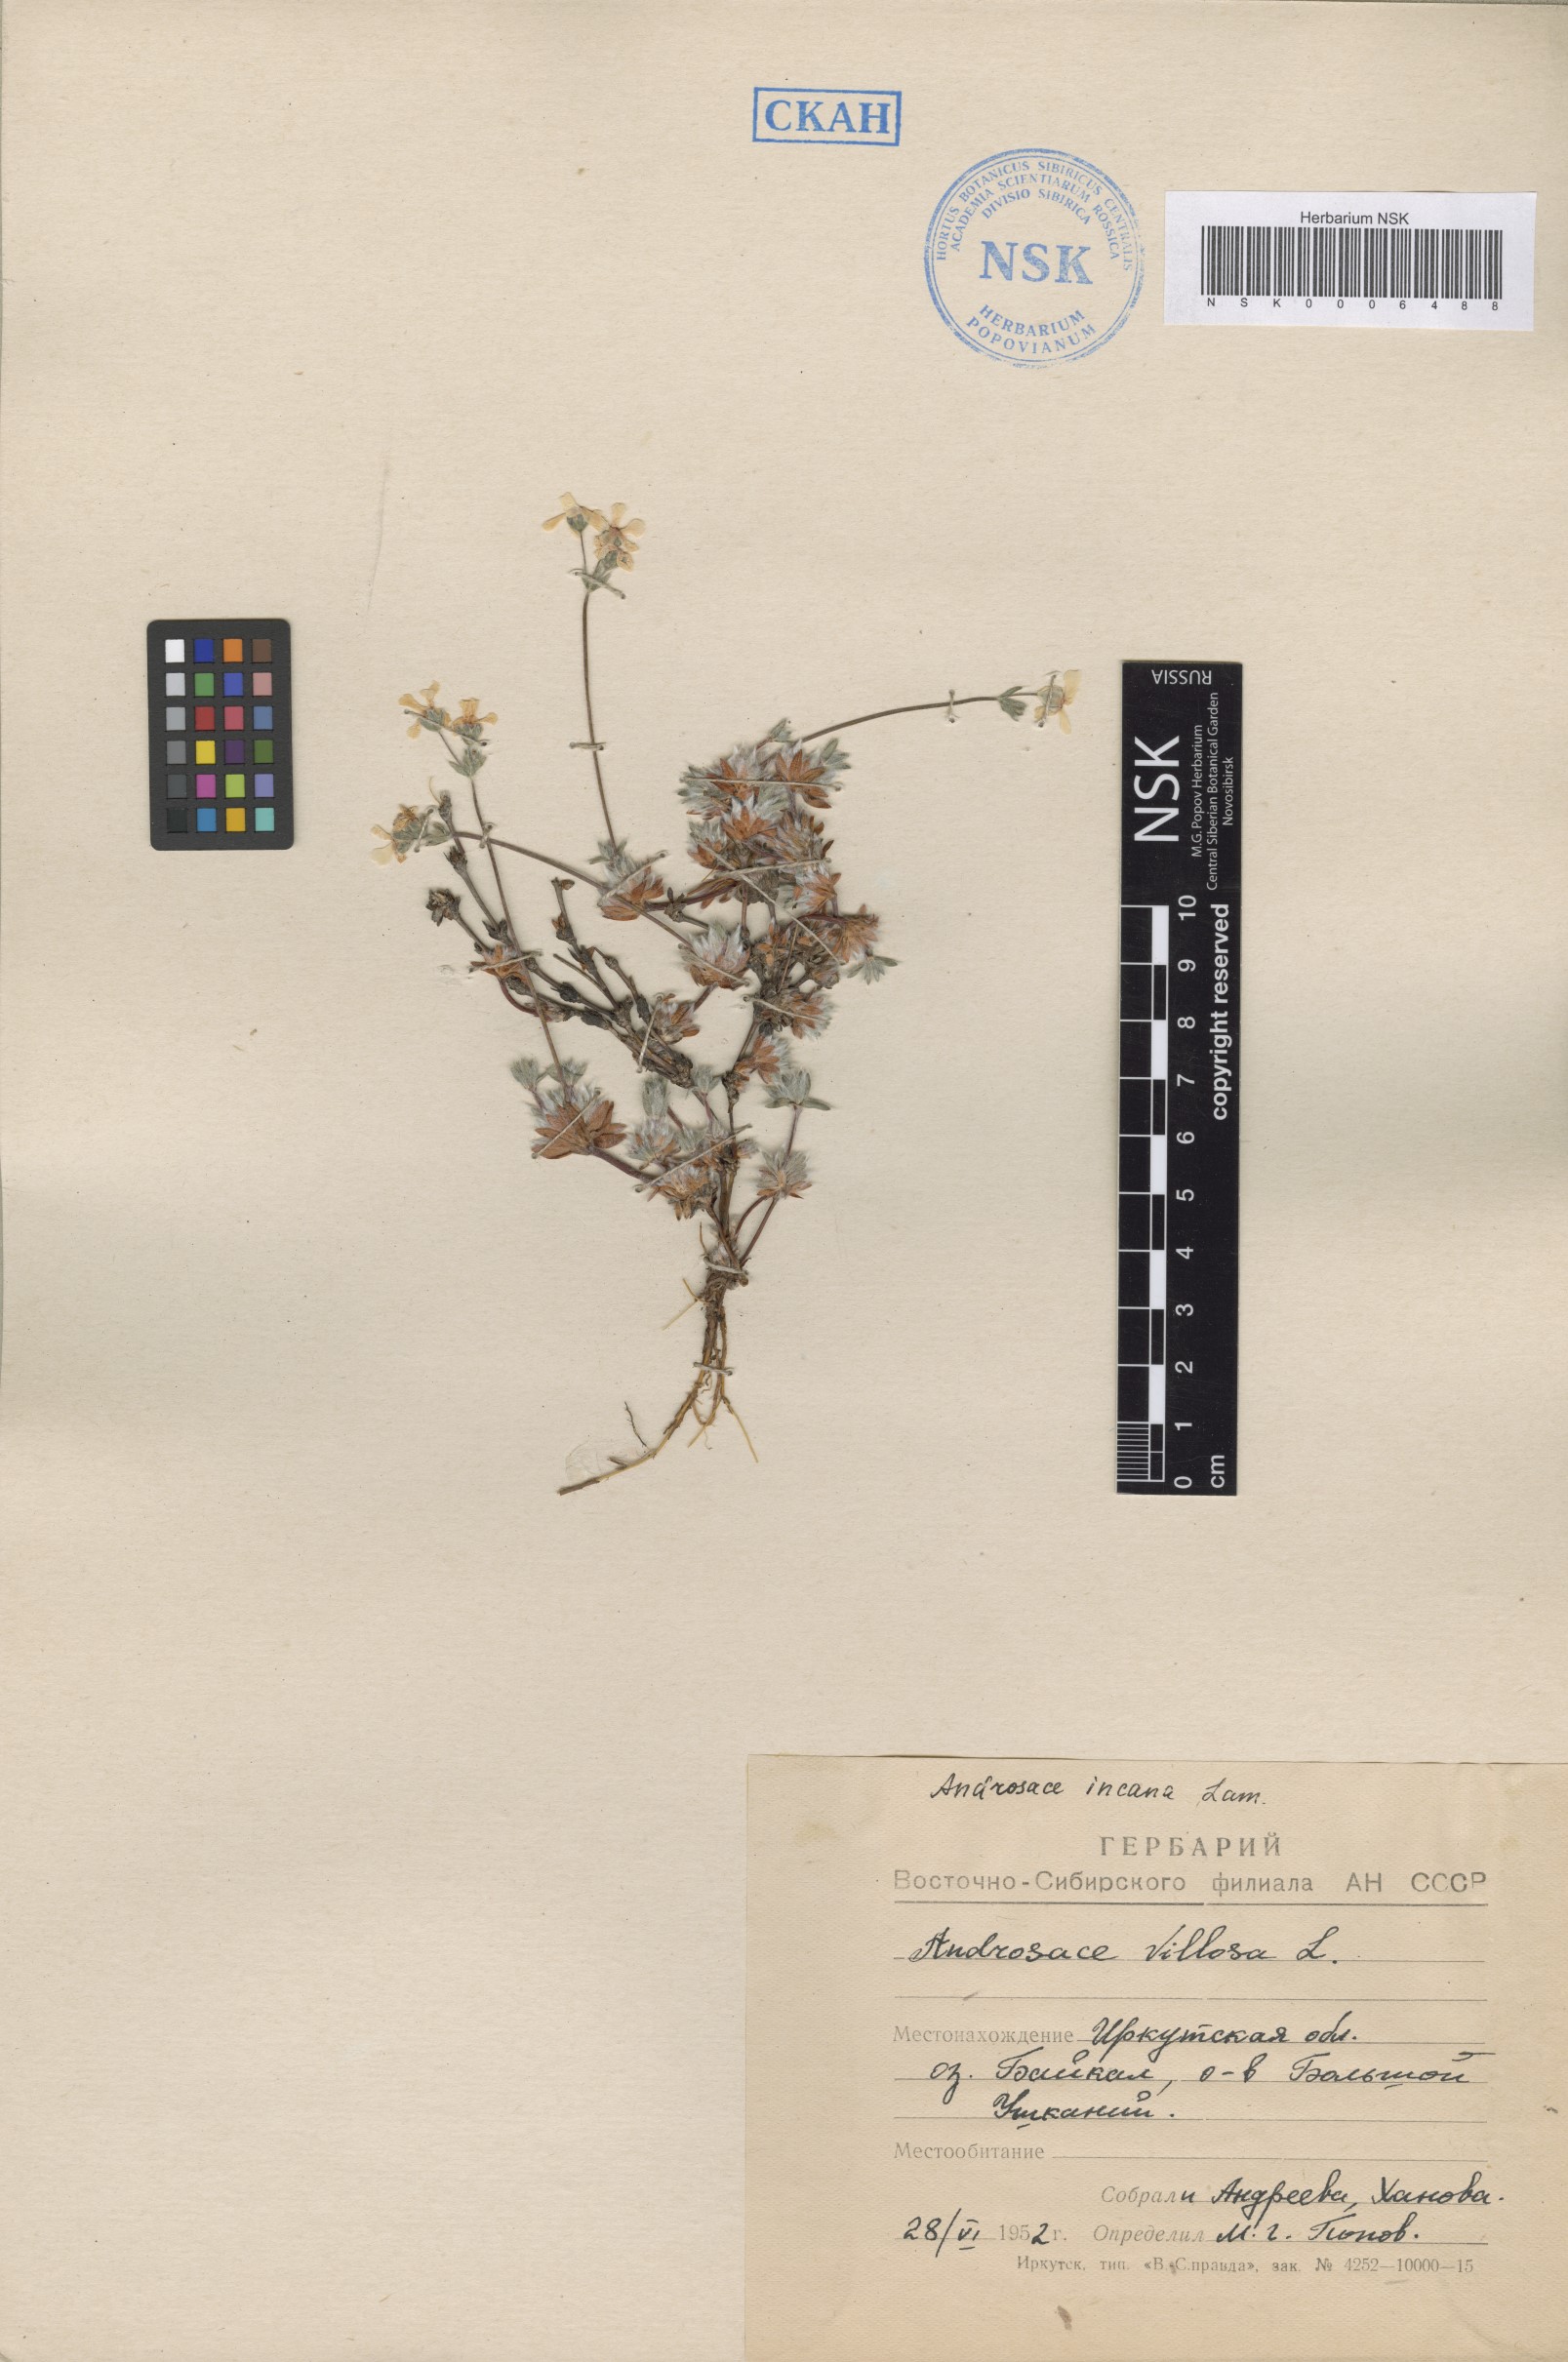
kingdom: Plantae
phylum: Tracheophyta
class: Magnoliopsida
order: Ericales
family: Primulaceae
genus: Androsace
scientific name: Androsace incana
